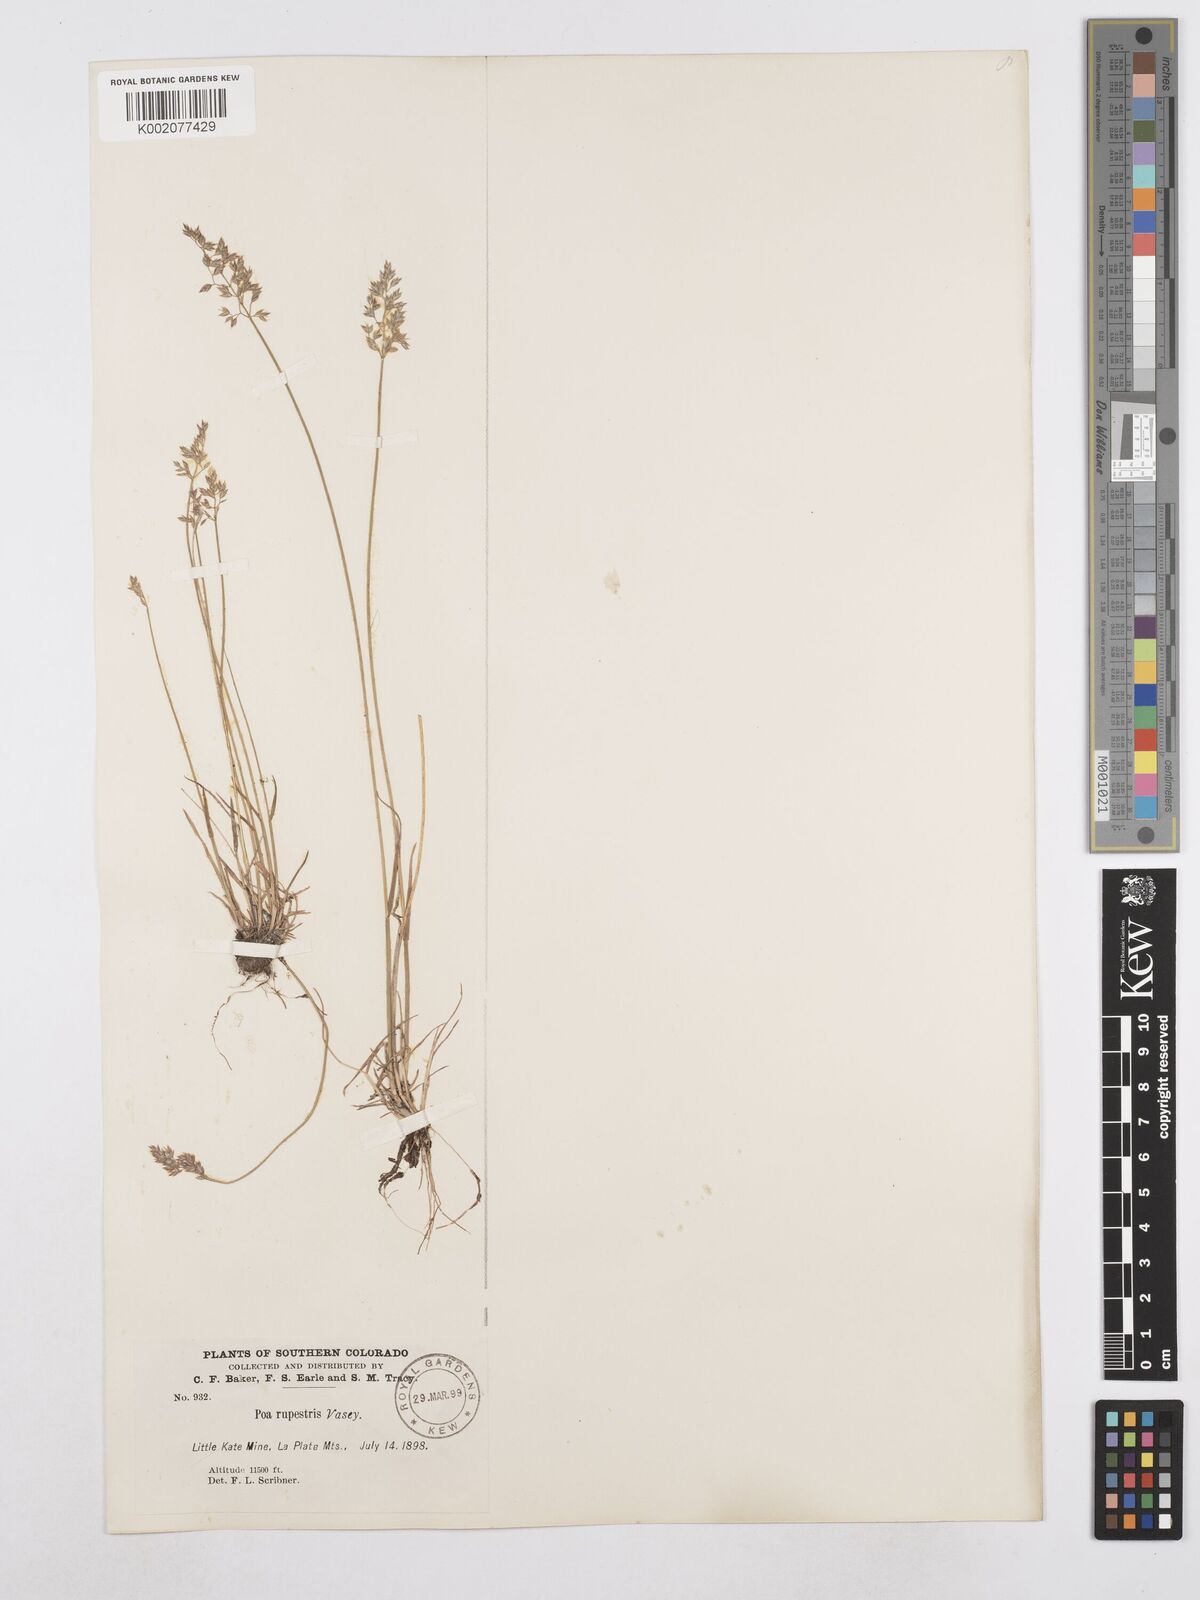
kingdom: Plantae
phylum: Tracheophyta
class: Liliopsida
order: Poales
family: Poaceae
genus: Poa
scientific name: Poa glauca
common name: Glaucous bluegrass
